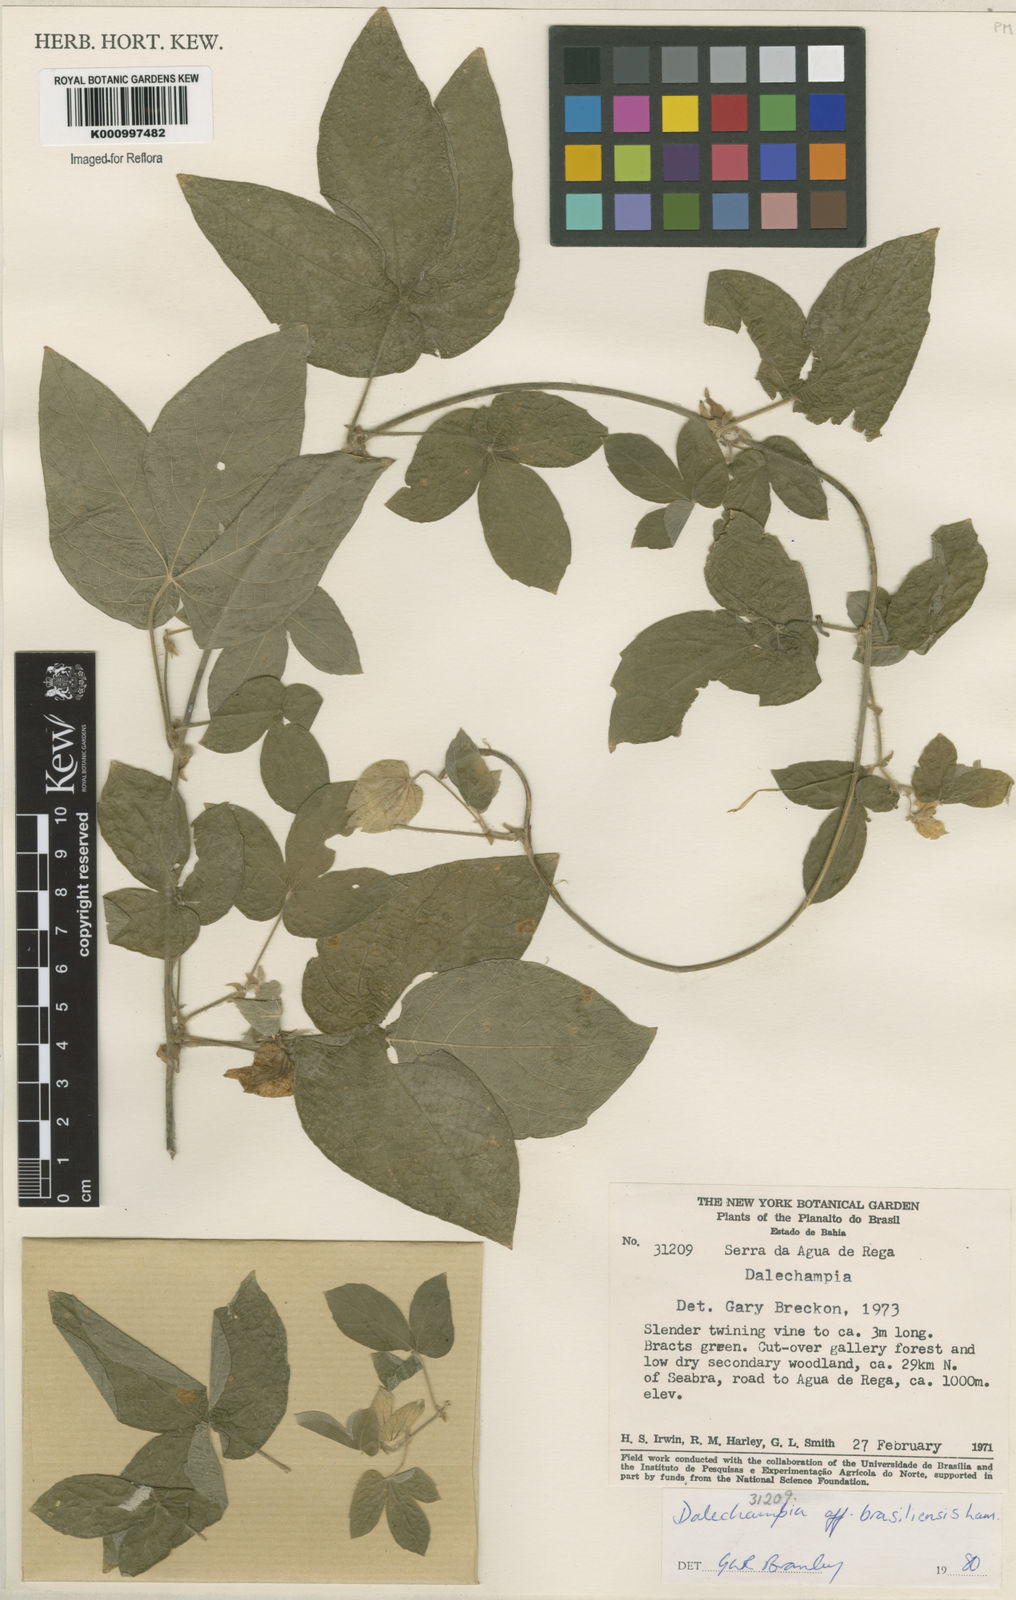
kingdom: Plantae
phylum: Tracheophyta
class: Magnoliopsida
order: Malpighiales
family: Euphorbiaceae
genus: Dalechampia
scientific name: Dalechampia brasiliensis
